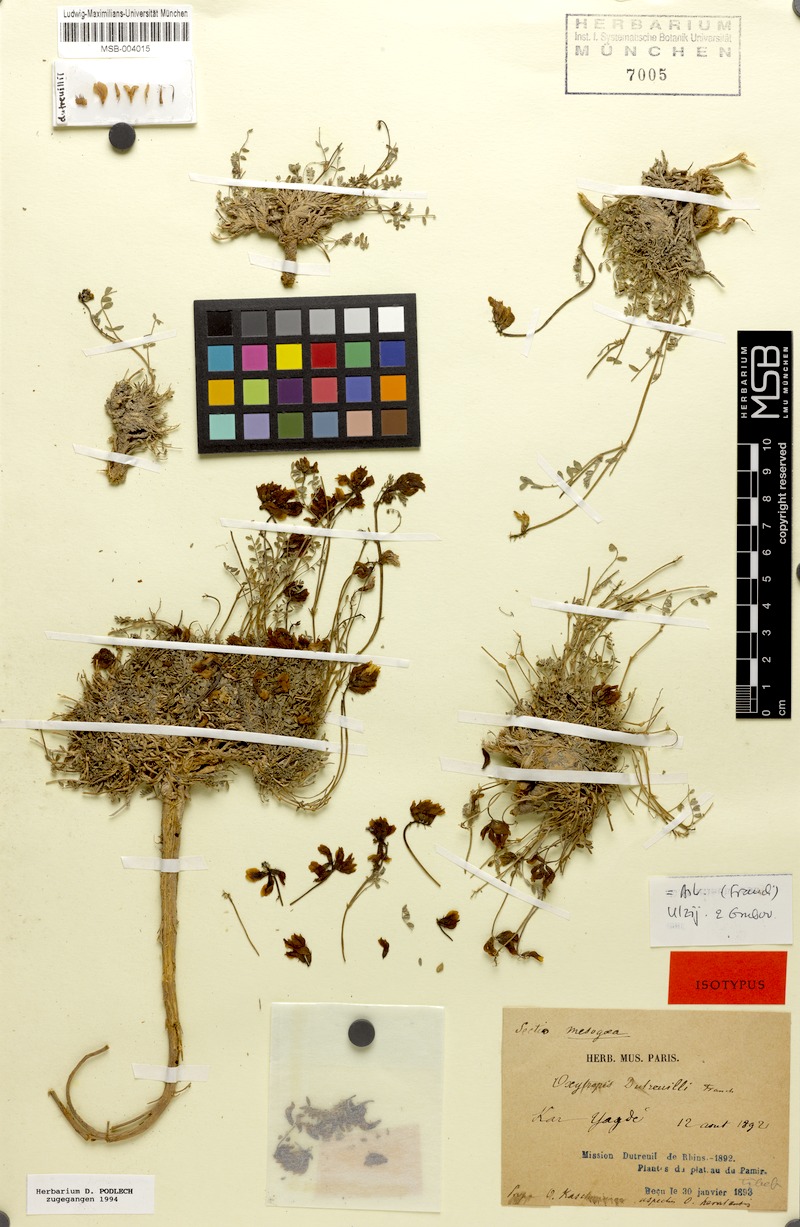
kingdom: Plantae
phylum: Tracheophyta
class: Magnoliopsida
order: Fabales
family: Fabaceae
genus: Astragalus
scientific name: Astragalus dutreuilii
